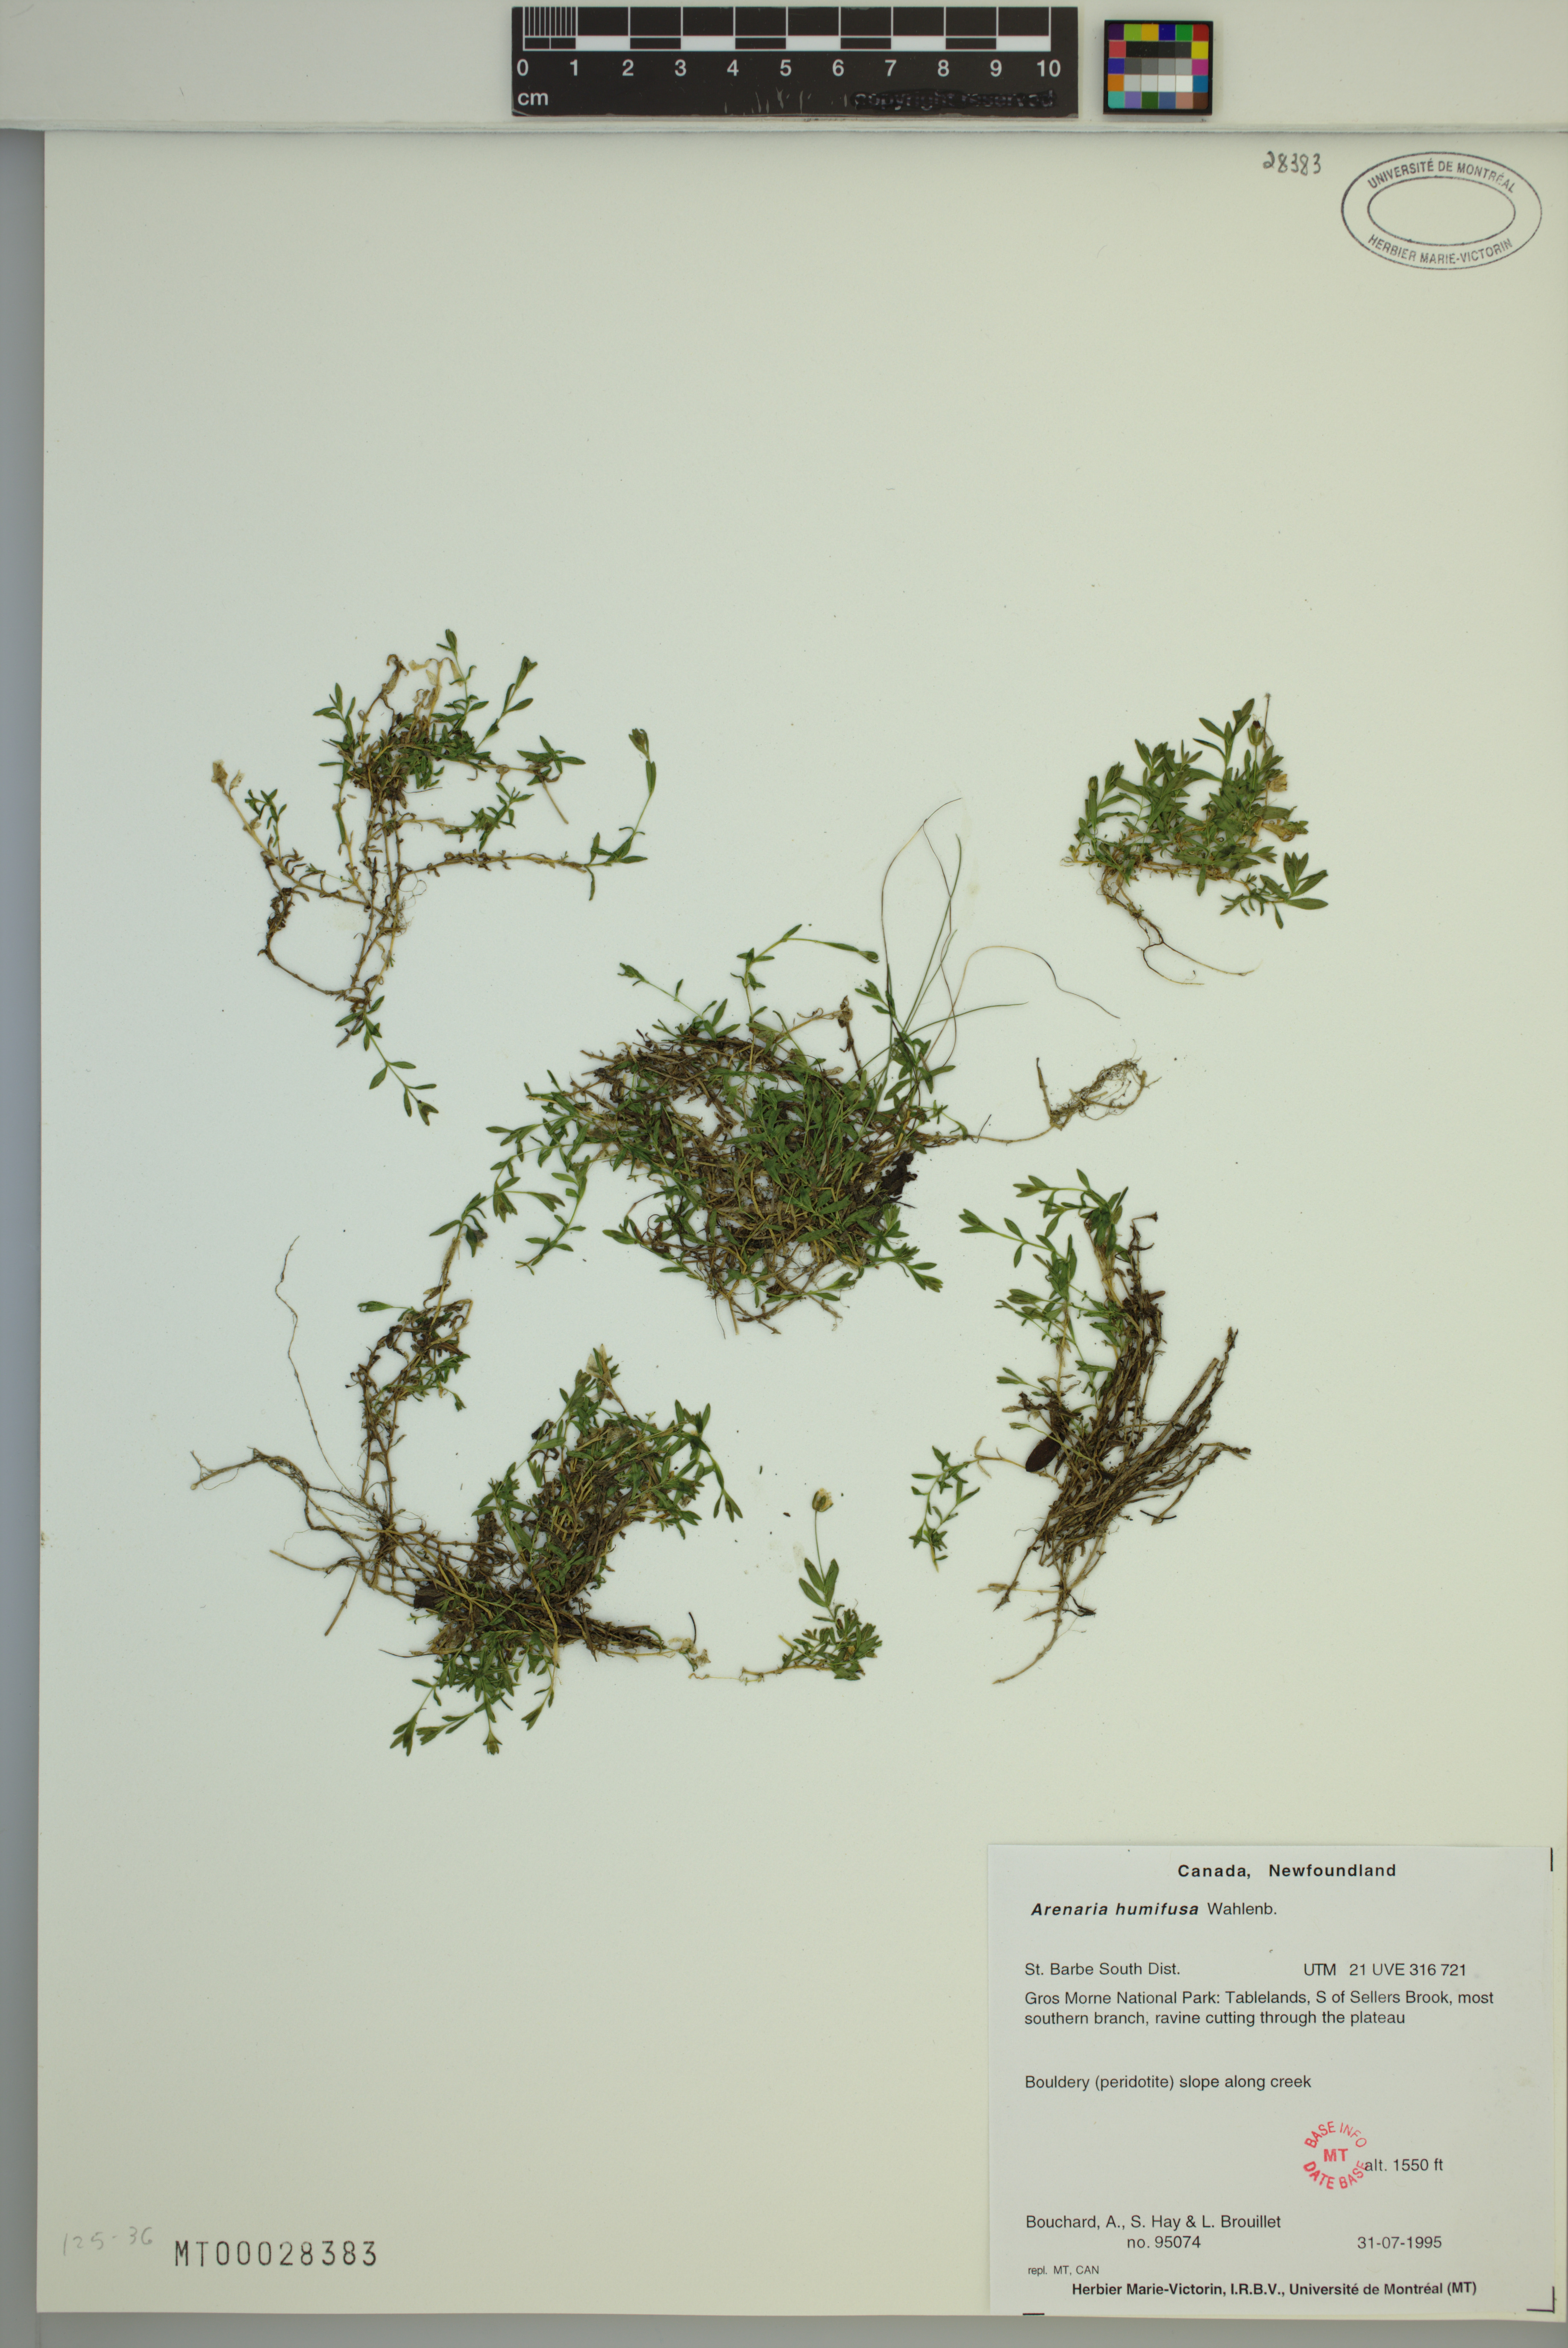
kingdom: Plantae
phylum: Tracheophyta
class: Magnoliopsida
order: Caryophyllales
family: Caryophyllaceae
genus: Arenaria
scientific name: Arenaria humifusa
